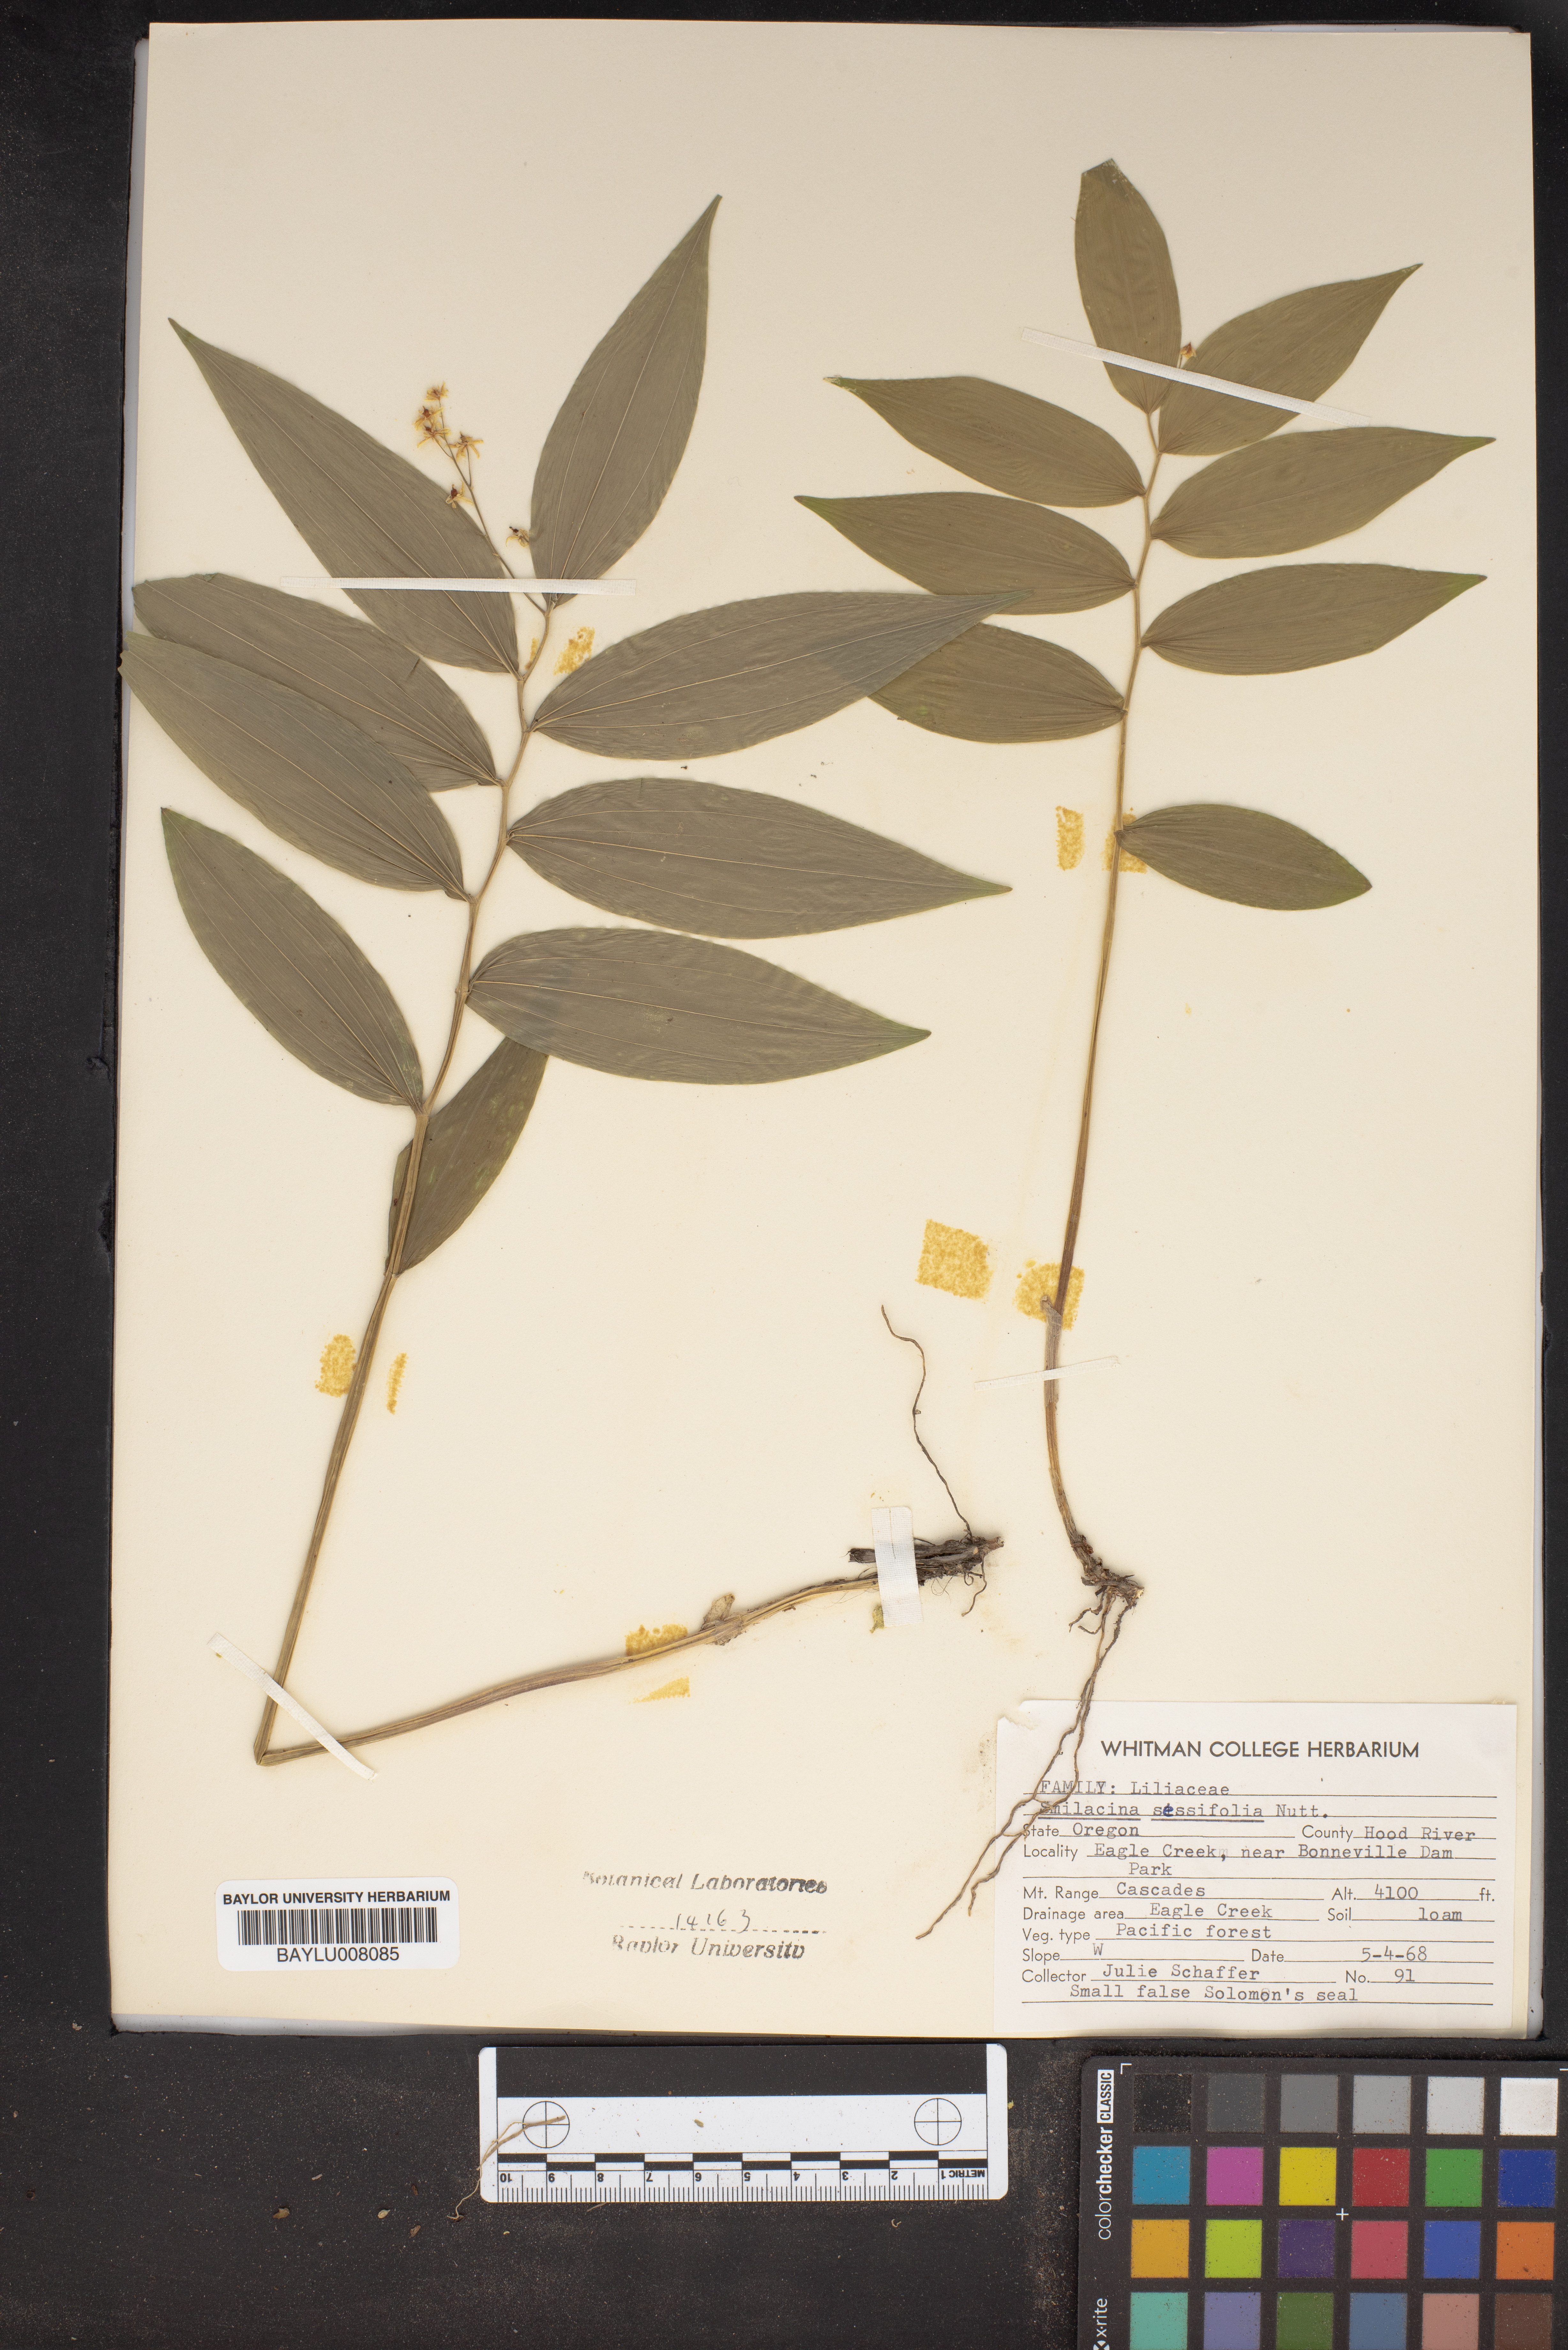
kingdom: Plantae
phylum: Tracheophyta
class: Liliopsida
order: Asparagales
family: Asparagaceae
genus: Maianthemum
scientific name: Maianthemum stellatum
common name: Little false solomon's seal
